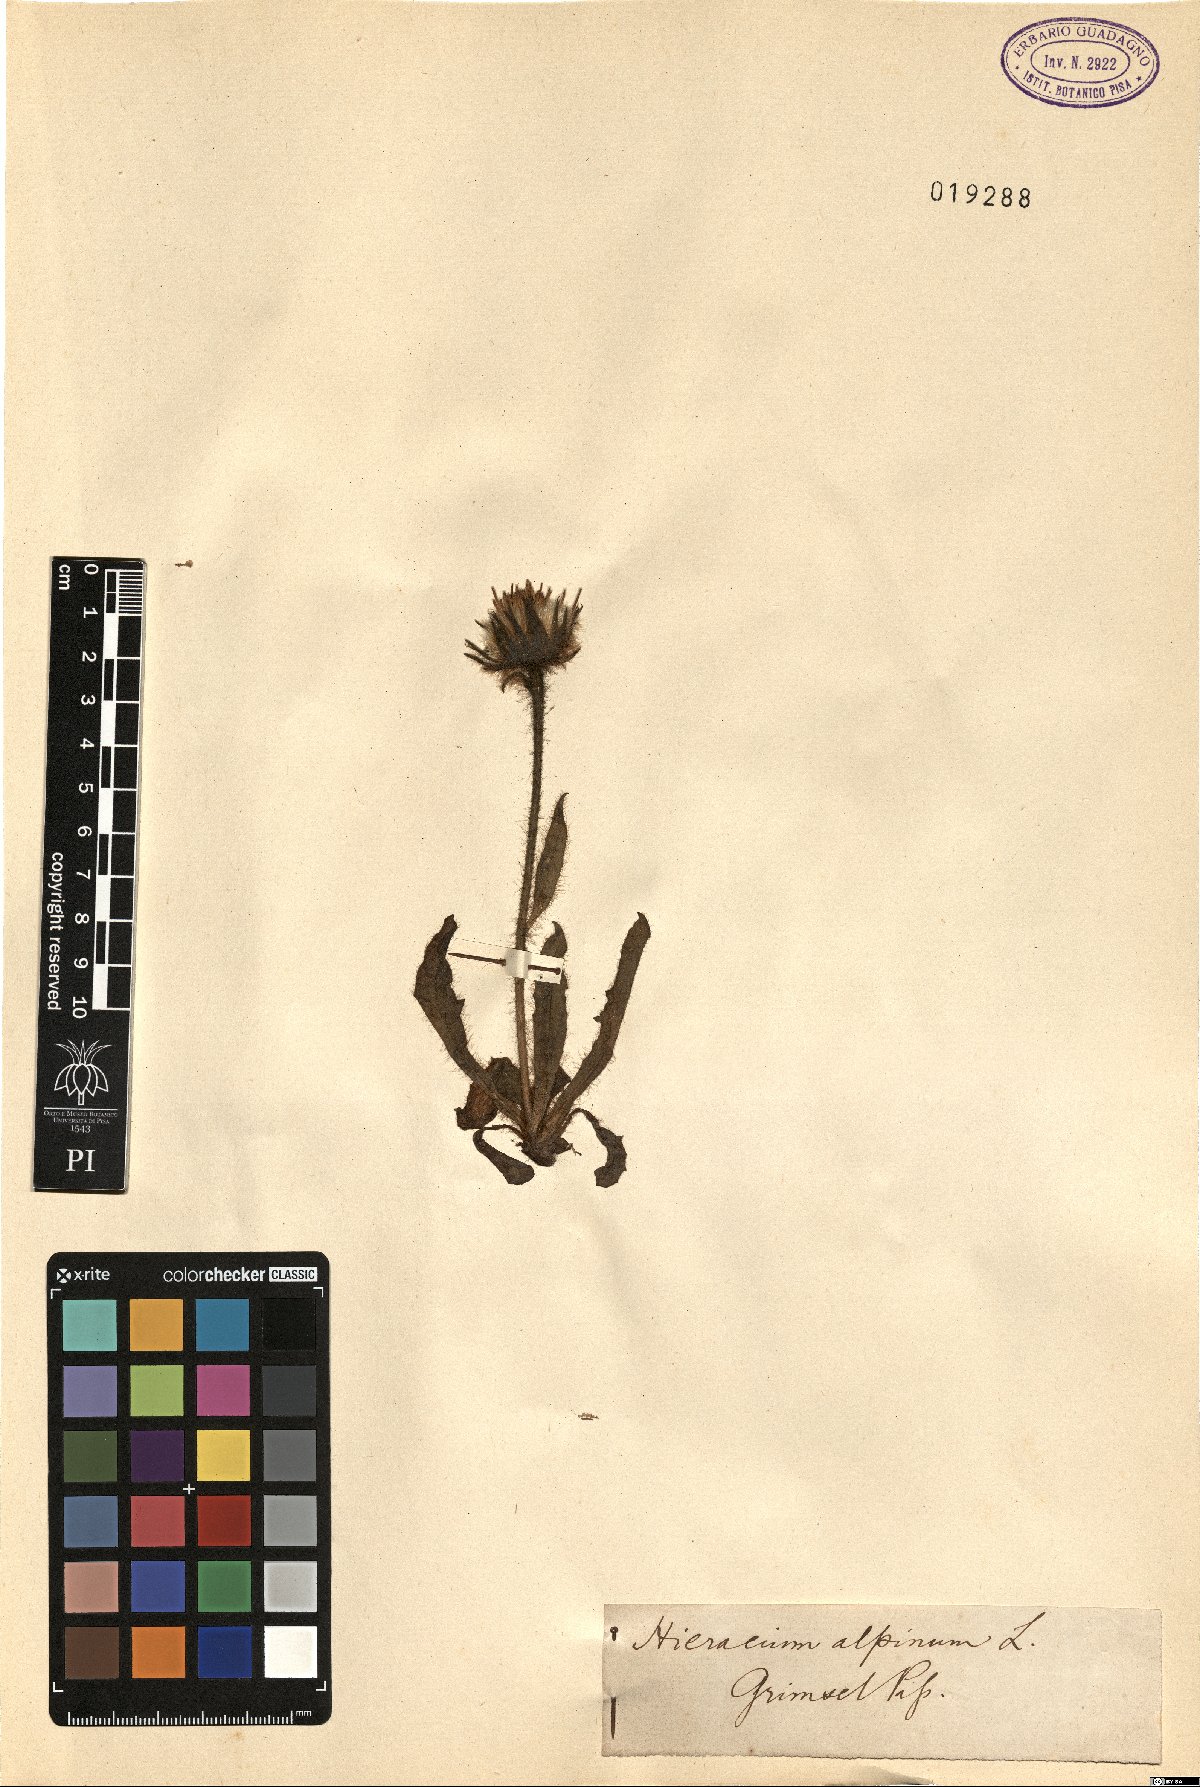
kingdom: Plantae
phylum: Tracheophyta
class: Magnoliopsida
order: Asterales
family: Asteraceae
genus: Hieracium
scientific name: Hieracium alpinum
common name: Alpine hawkweed
